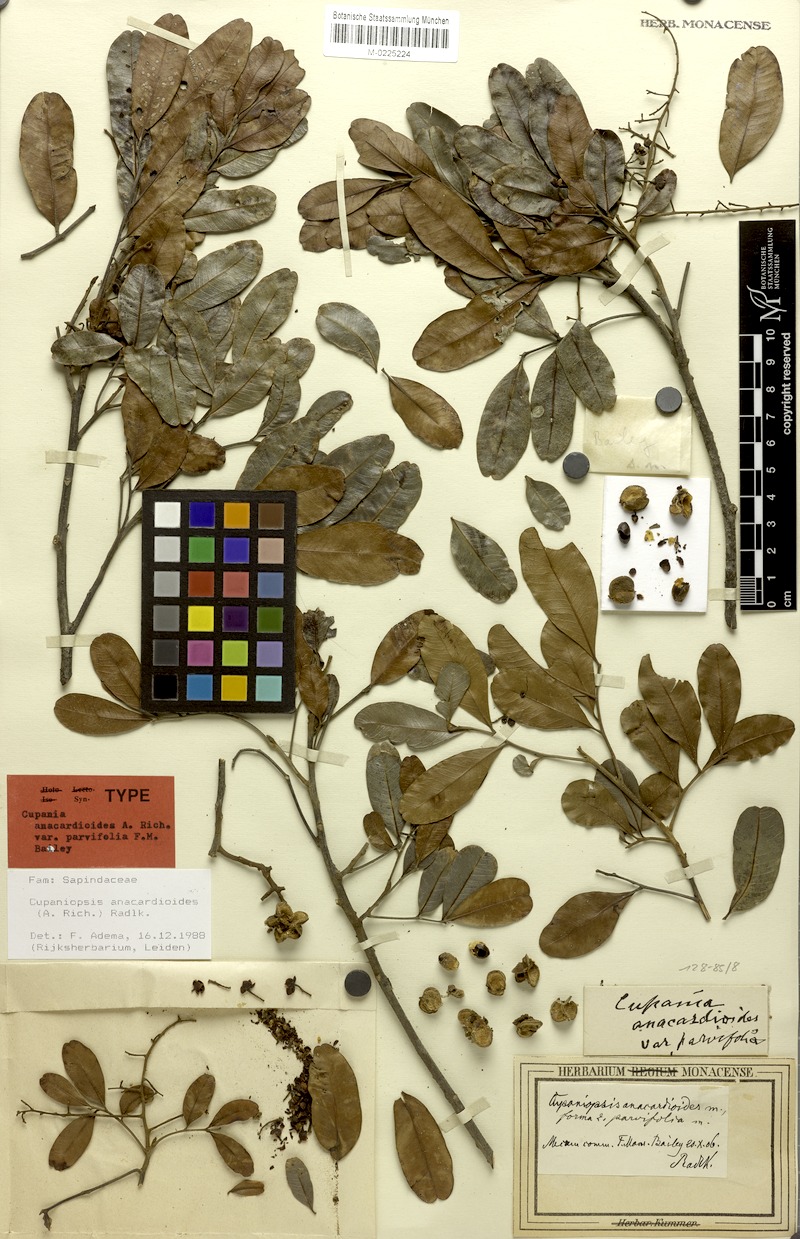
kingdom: Plantae
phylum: Tracheophyta
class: Magnoliopsida
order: Sapindales
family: Sapindaceae
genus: Cupaniopsis
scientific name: Cupaniopsis anacardioides
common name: Carrotwood
